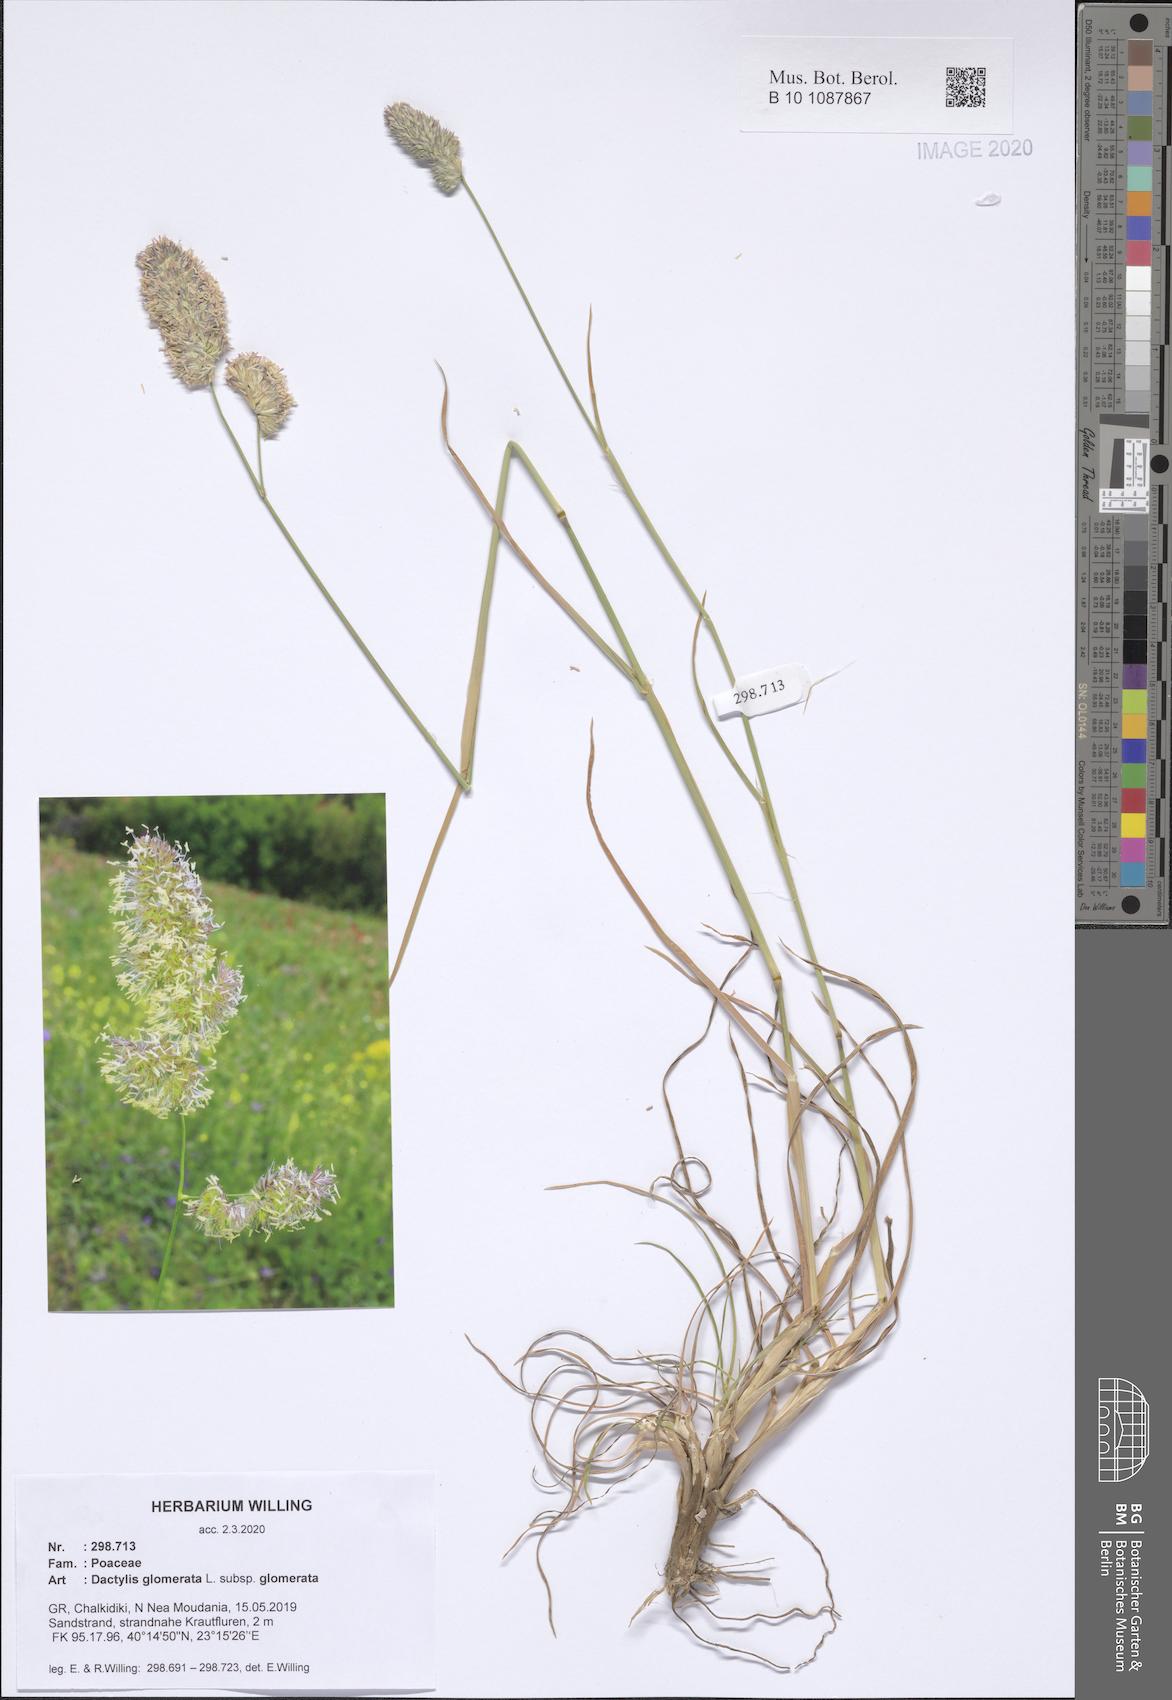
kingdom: Plantae
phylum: Tracheophyta
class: Liliopsida
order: Poales
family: Poaceae
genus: Dactylis
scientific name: Dactylis glomerata
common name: Orchardgrass
